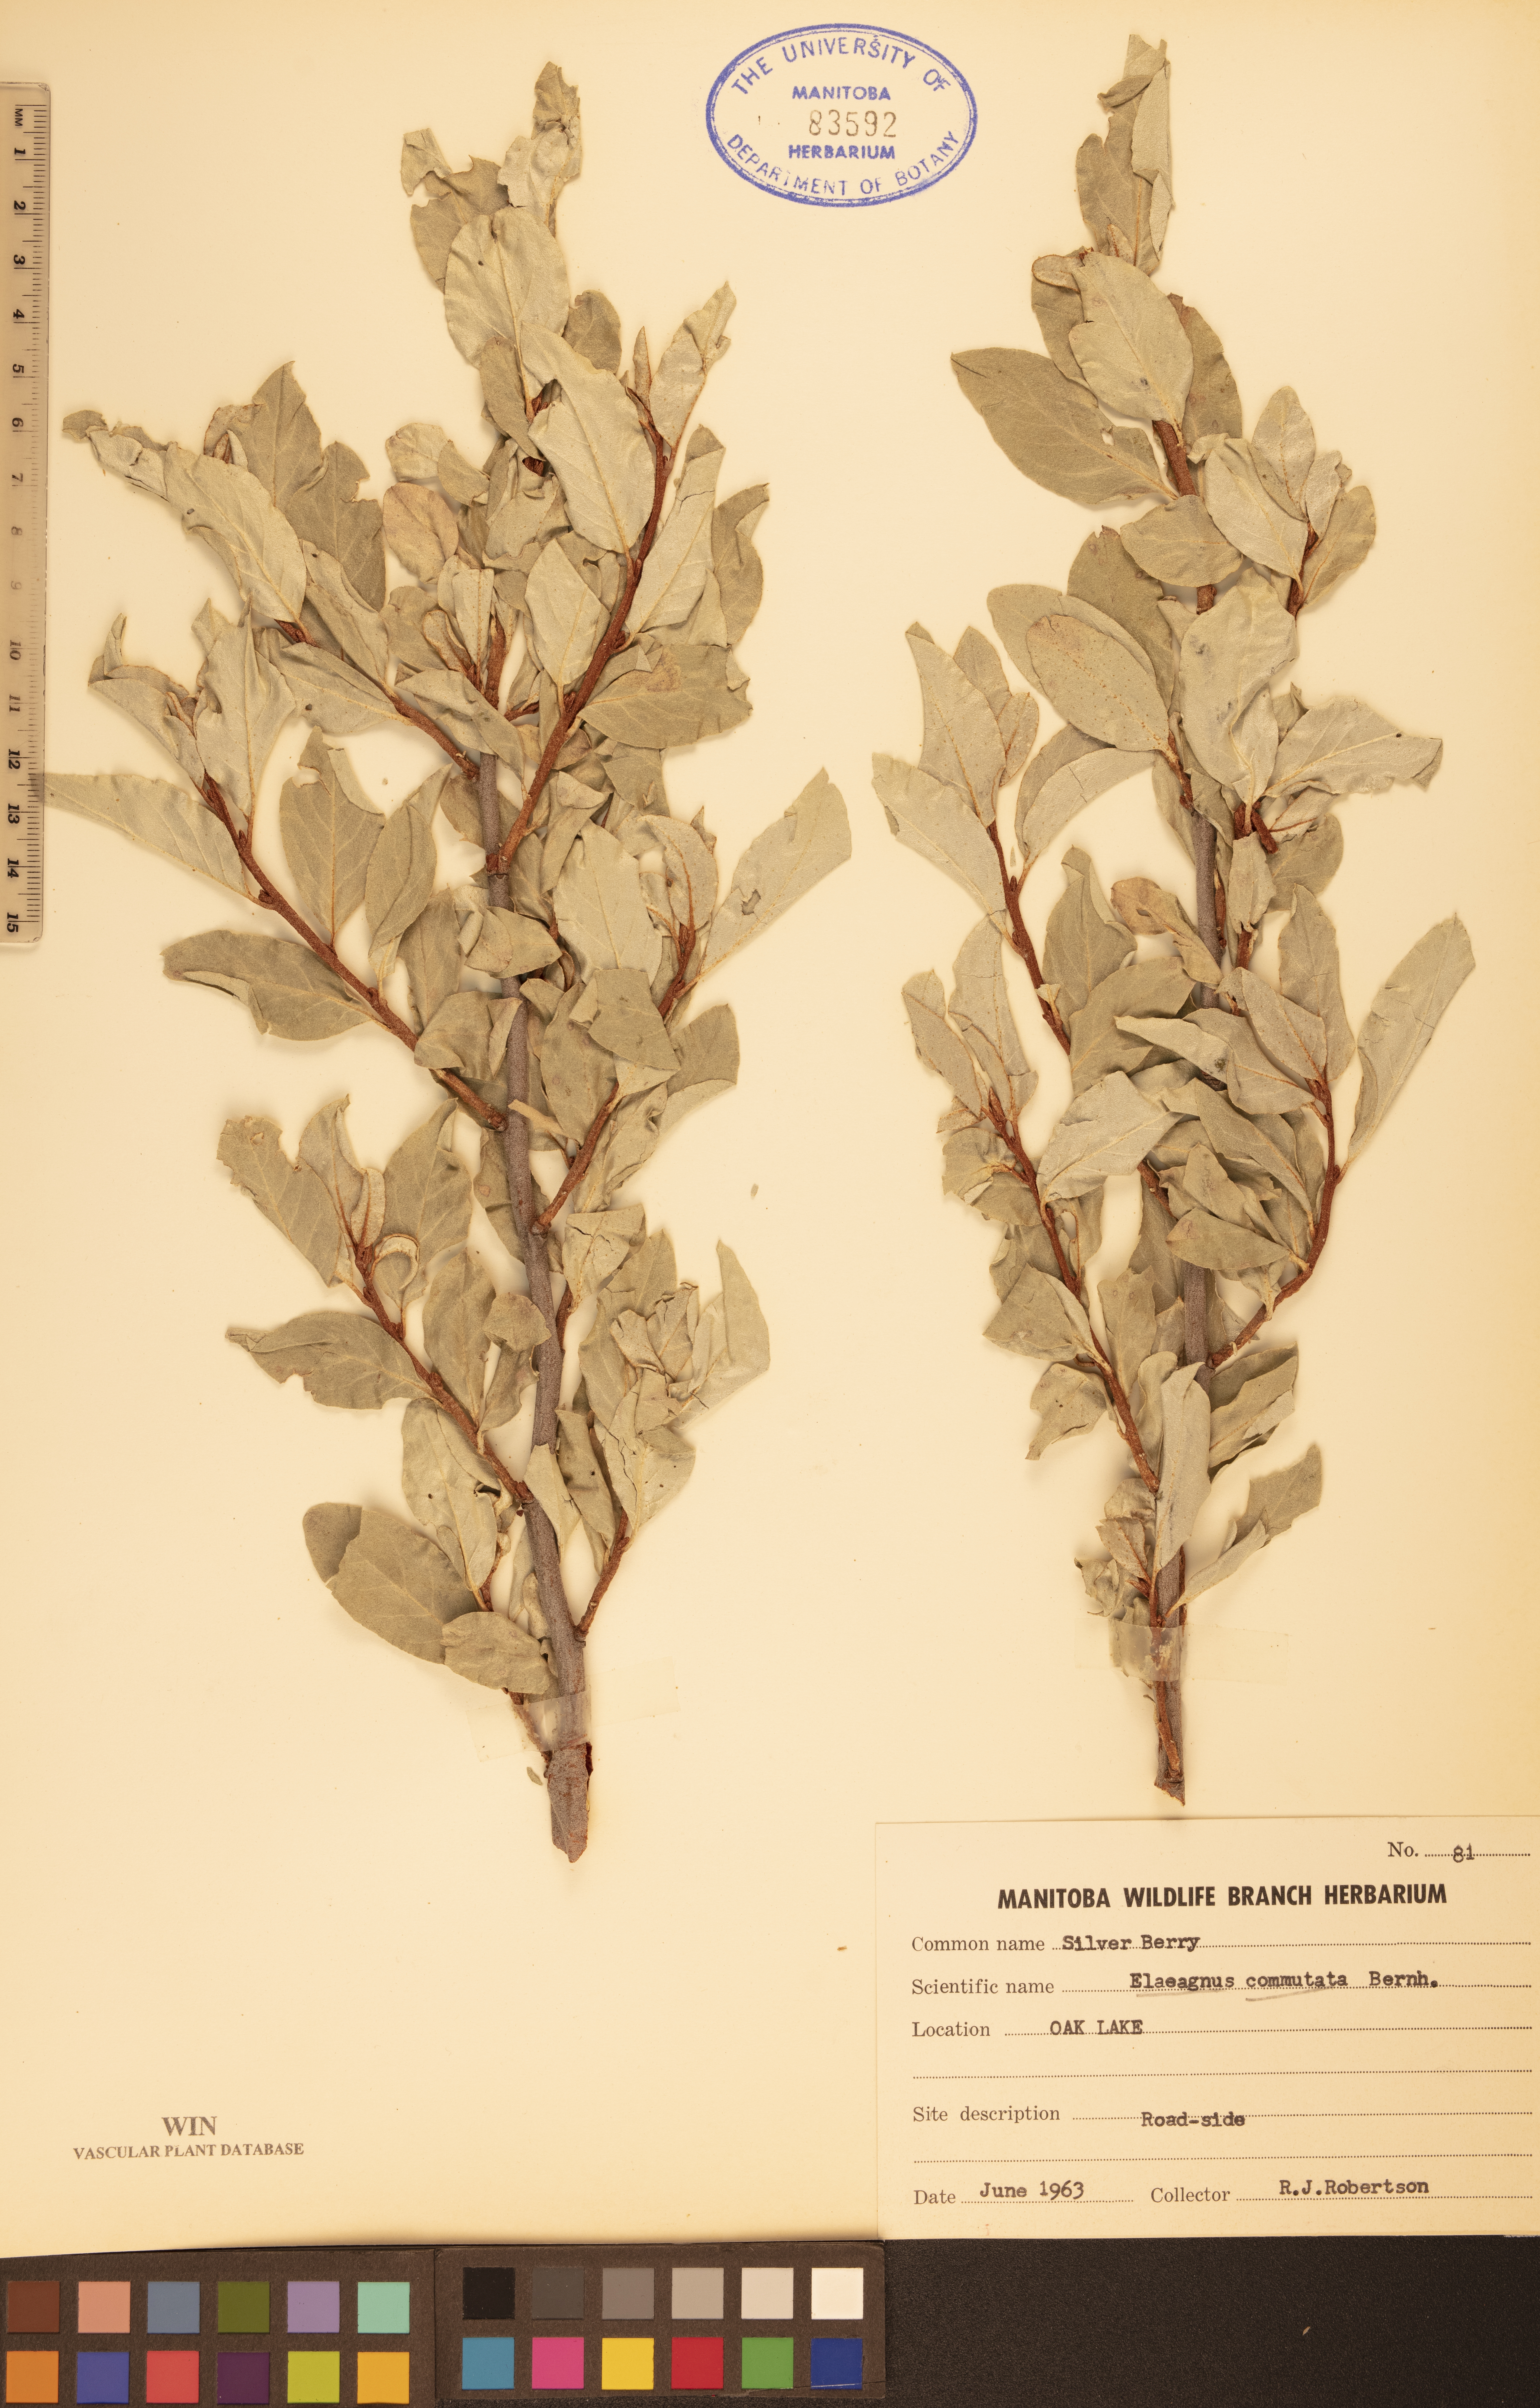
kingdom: Plantae
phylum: Tracheophyta
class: Magnoliopsida
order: Rosales
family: Elaeagnaceae
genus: Elaeagnus
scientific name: Elaeagnus commutata
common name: Silverberry
